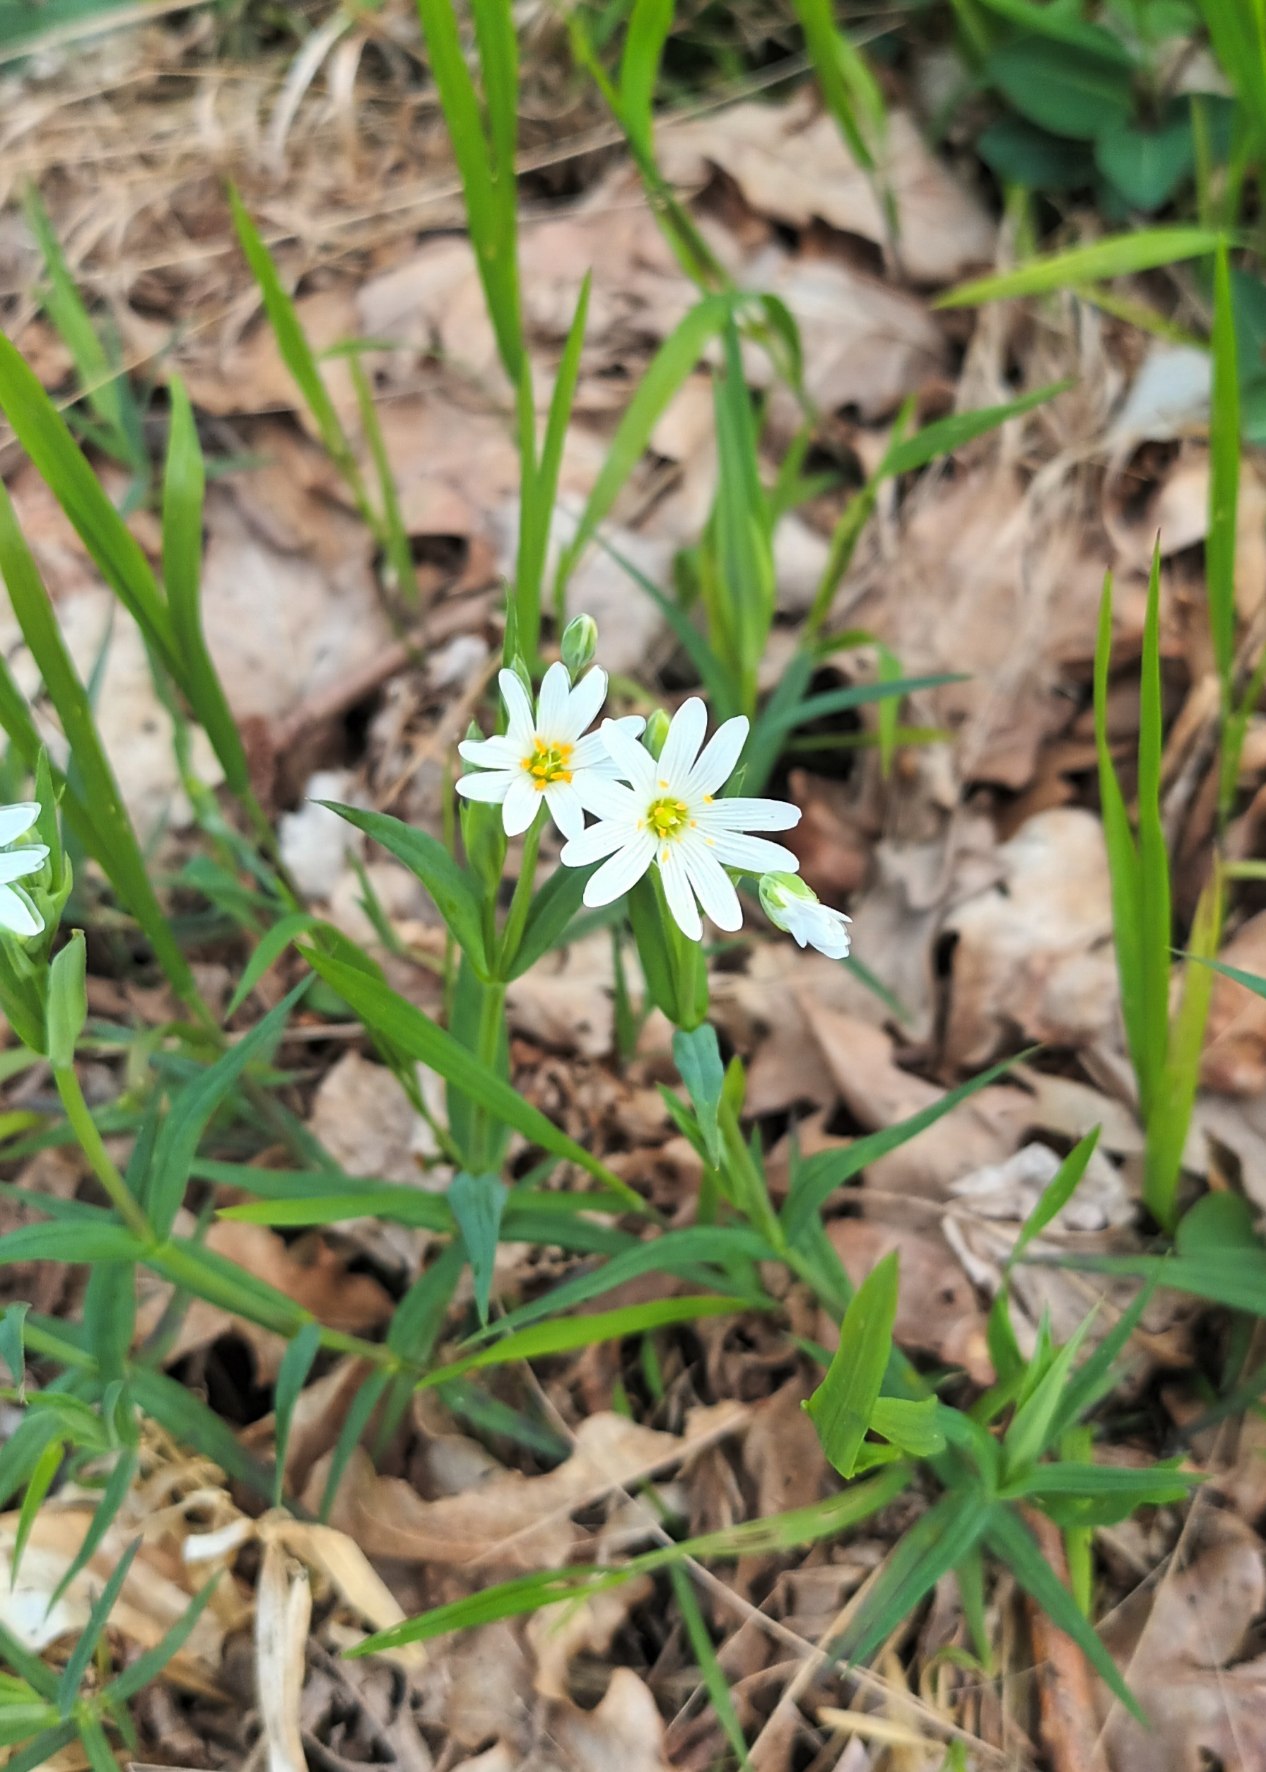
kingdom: Plantae
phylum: Tracheophyta
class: Magnoliopsida
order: Caryophyllales
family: Caryophyllaceae
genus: Rabelera
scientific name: Rabelera holostea
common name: Stor fladstjerne
